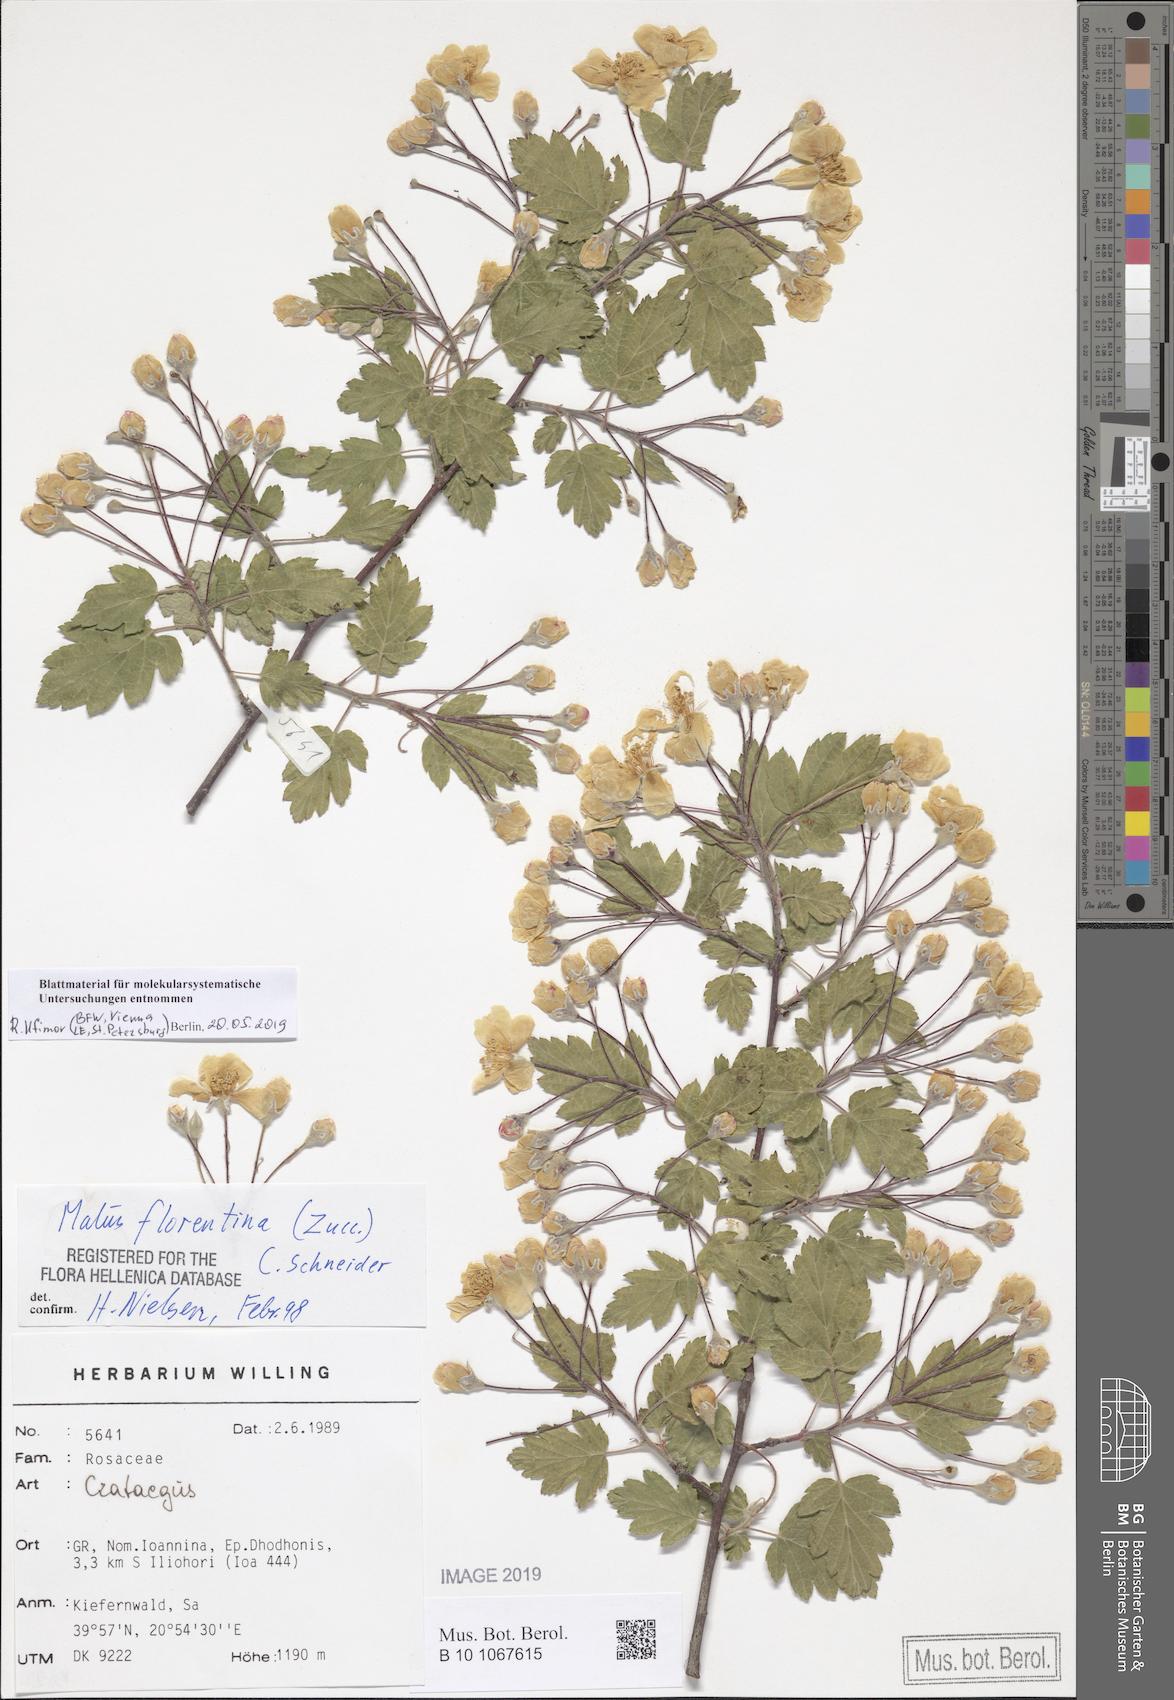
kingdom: Plantae
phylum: Tracheophyta
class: Magnoliopsida
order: Rosales
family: Rosaceae
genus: Tormimalus
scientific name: Tormimalus florentina
